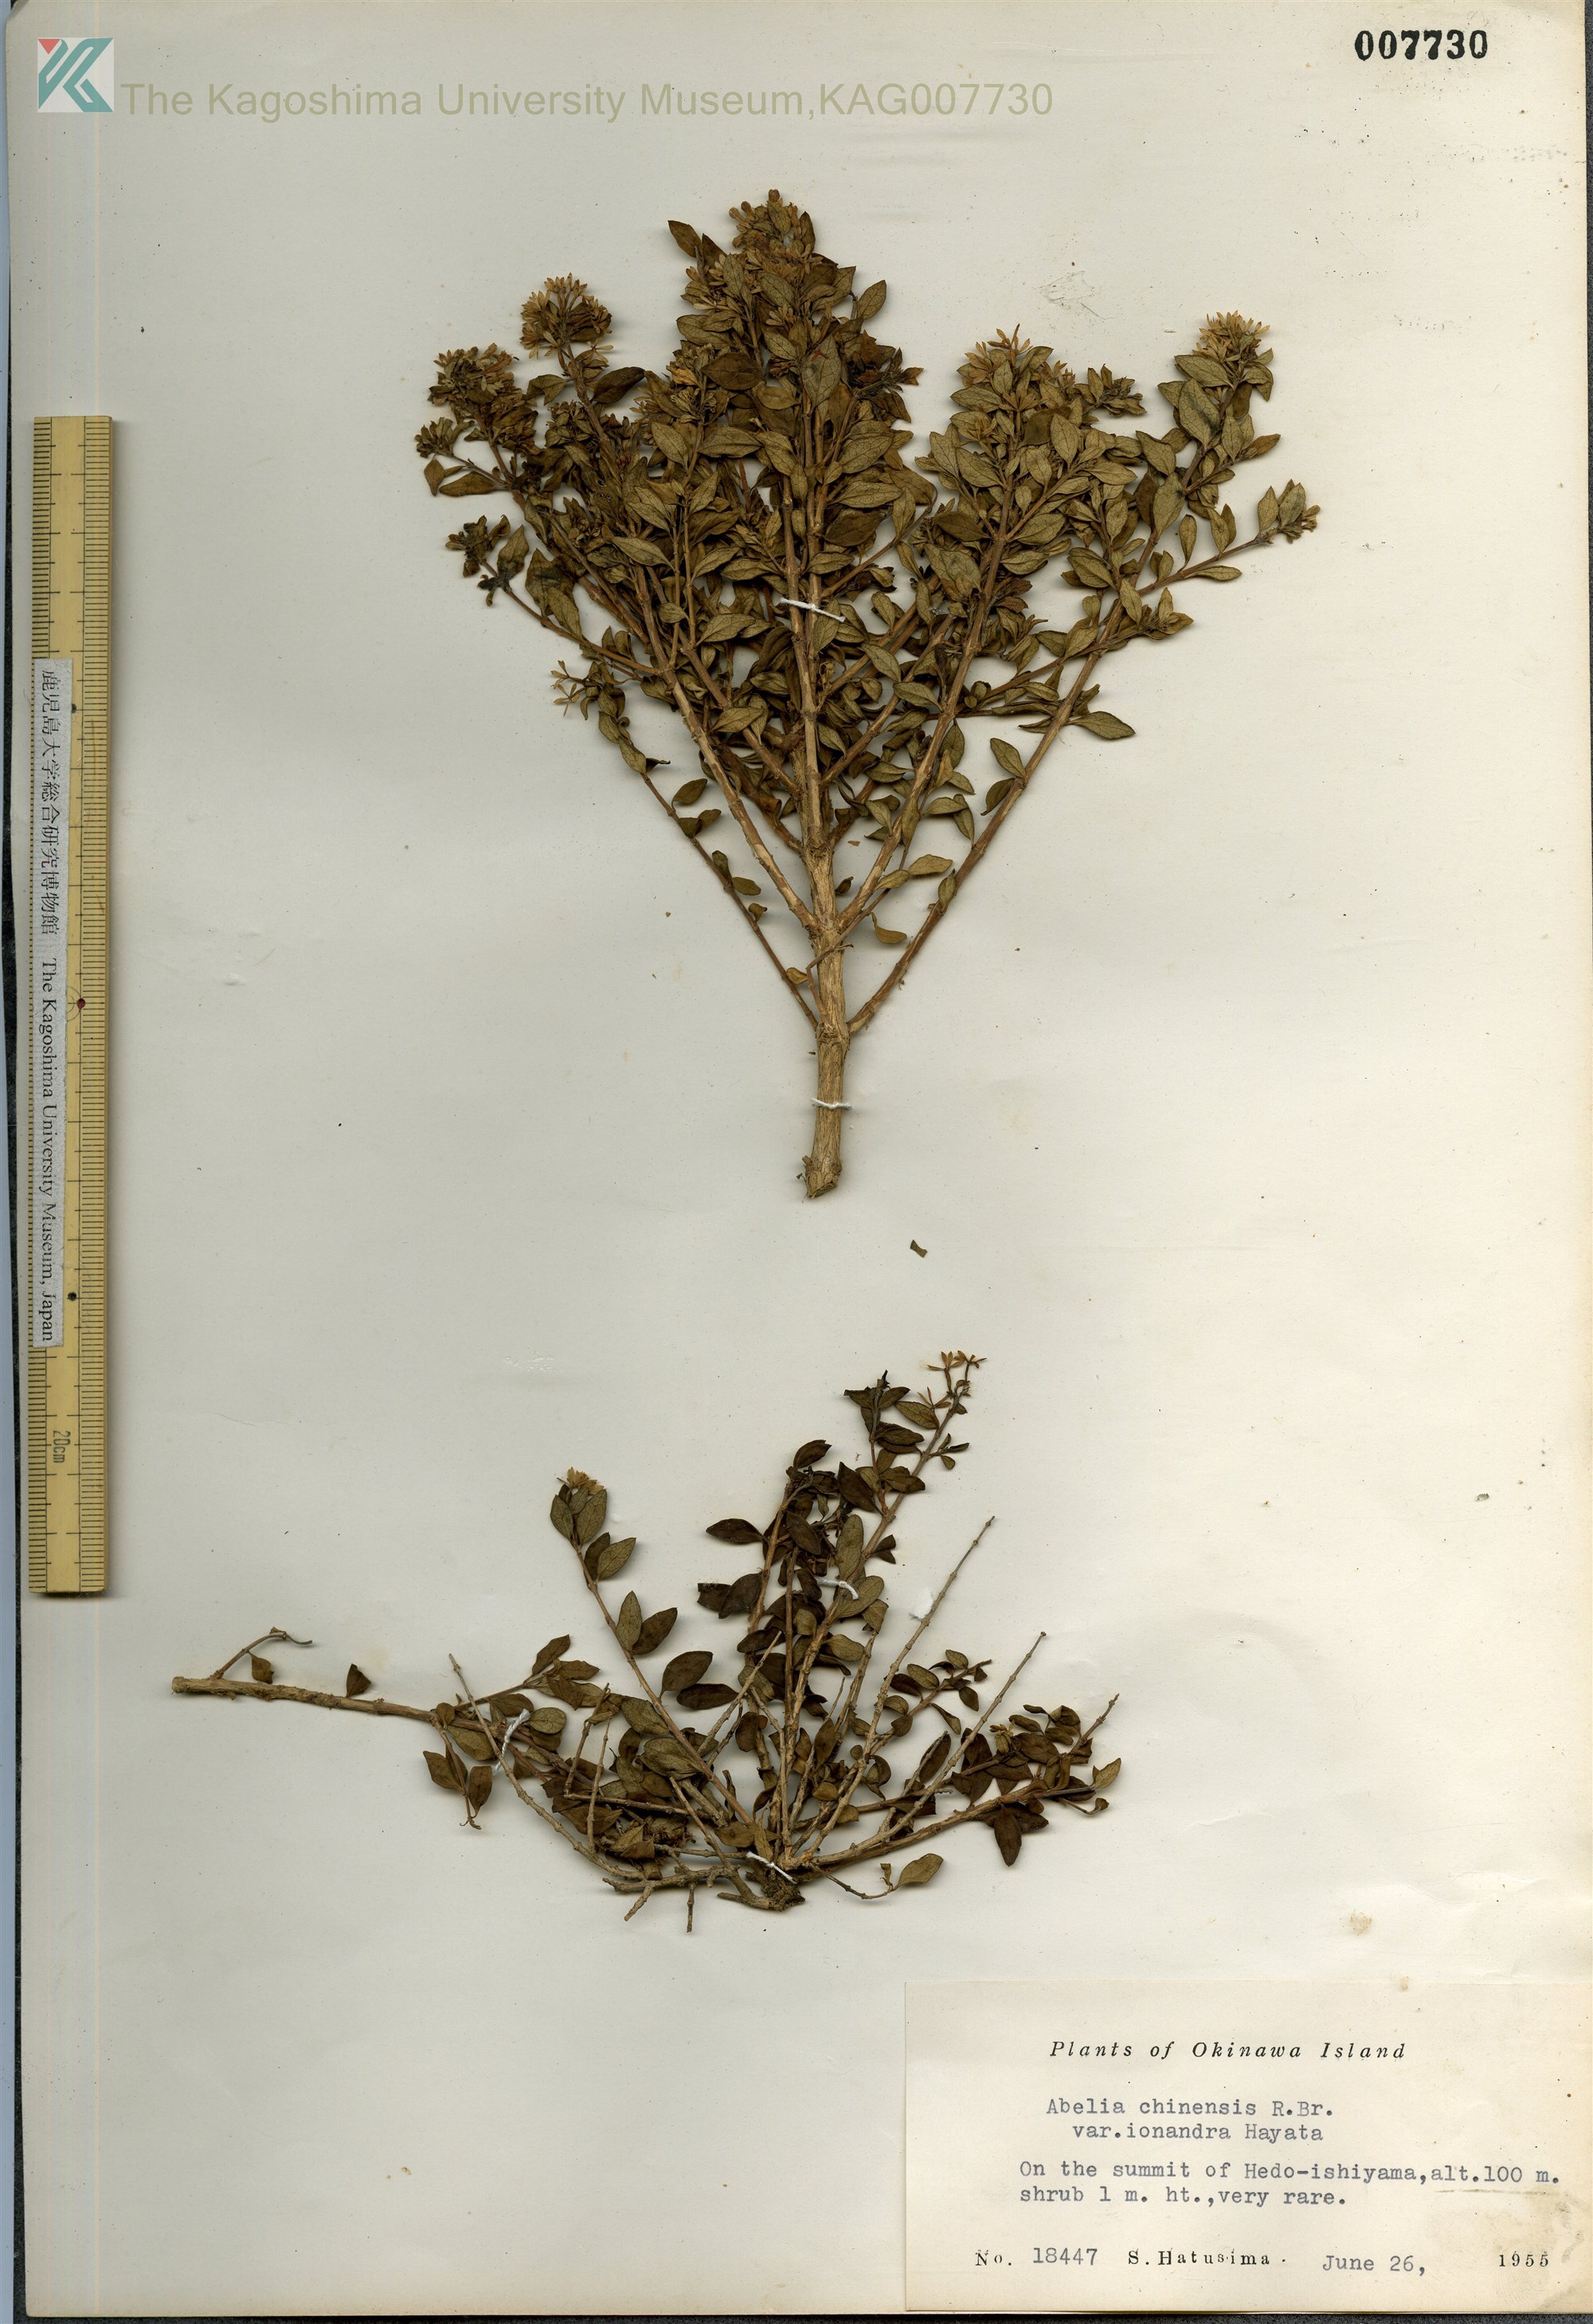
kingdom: Plantae
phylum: Tracheophyta
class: Magnoliopsida
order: Dipsacales
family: Caprifoliaceae
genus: Abelia
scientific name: Abelia chinensis
